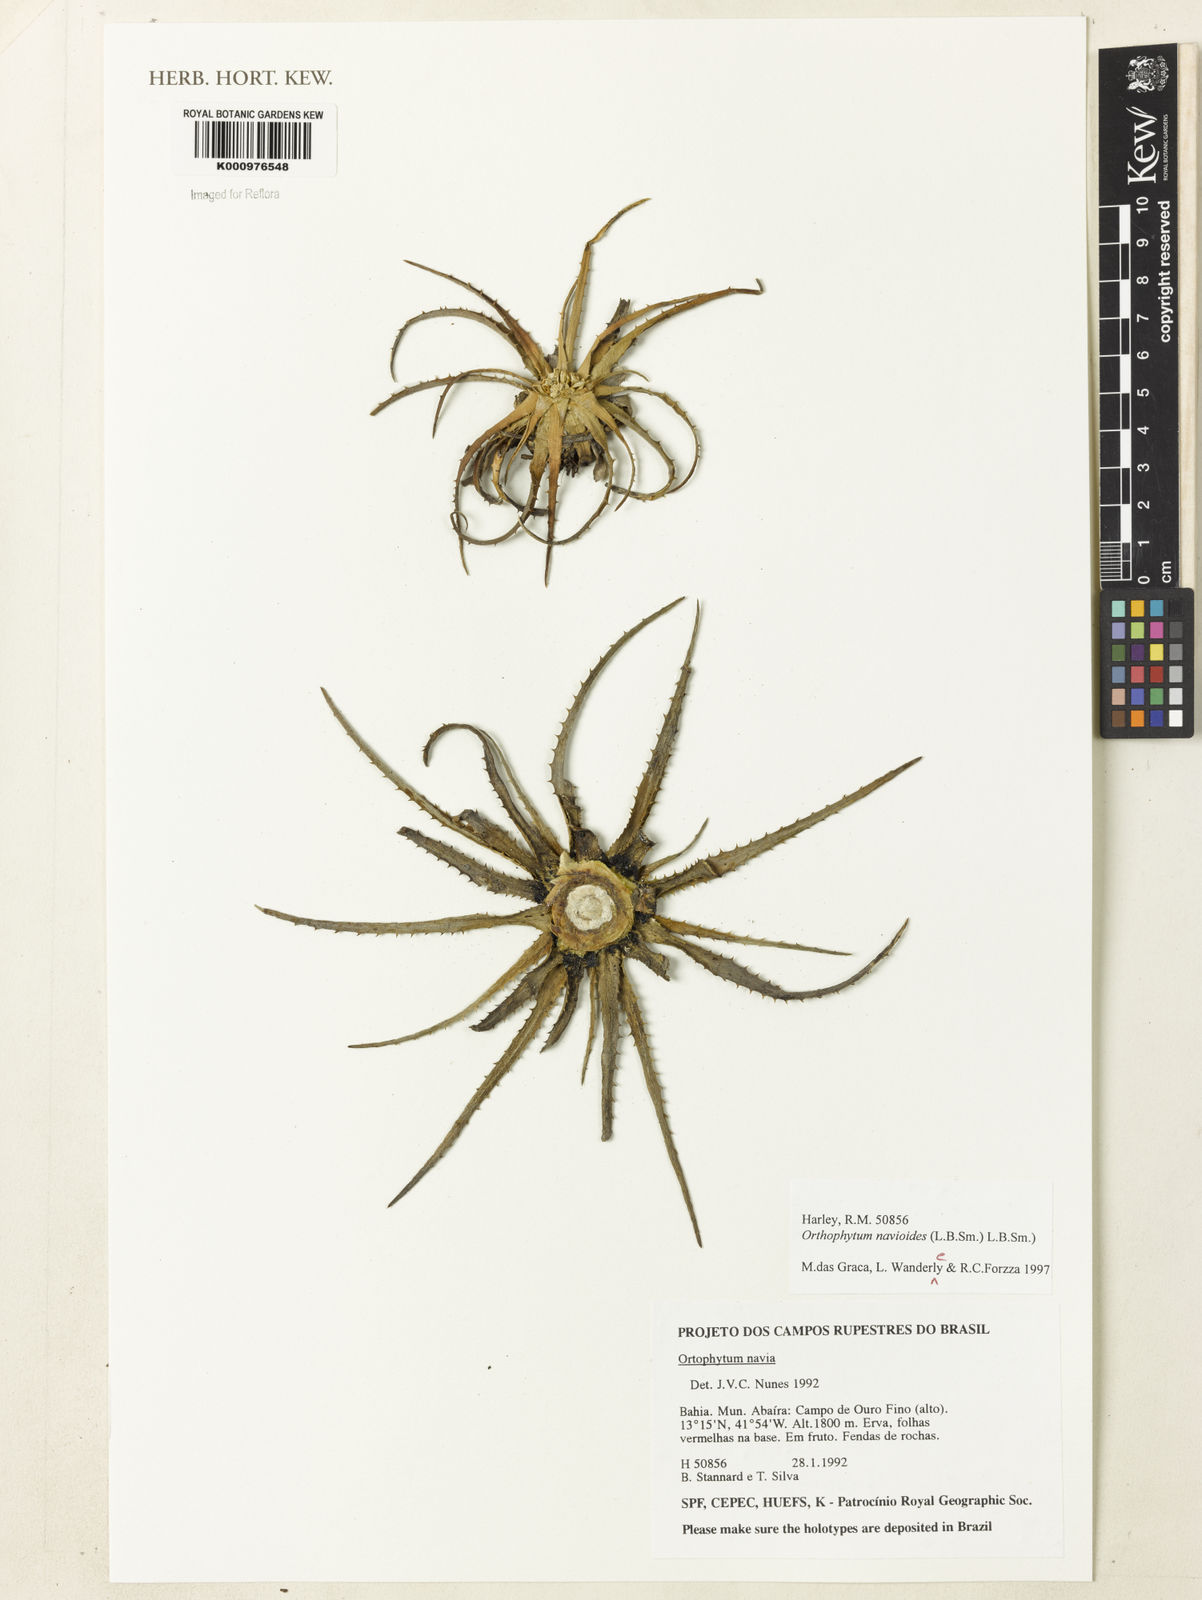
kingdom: Plantae
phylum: Tracheophyta
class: Liliopsida
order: Poales
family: Bromeliaceae
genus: Sincoraea
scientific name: Sincoraea navioides
